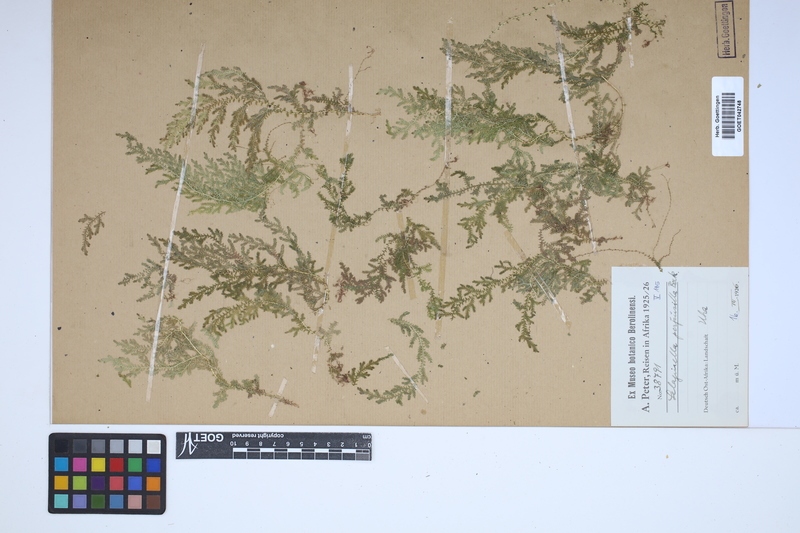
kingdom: Plantae
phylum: Tracheophyta
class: Lycopodiopsida
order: Selaginellales
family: Selaginellaceae
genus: Selaginella
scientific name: Selaginella perpusilla
